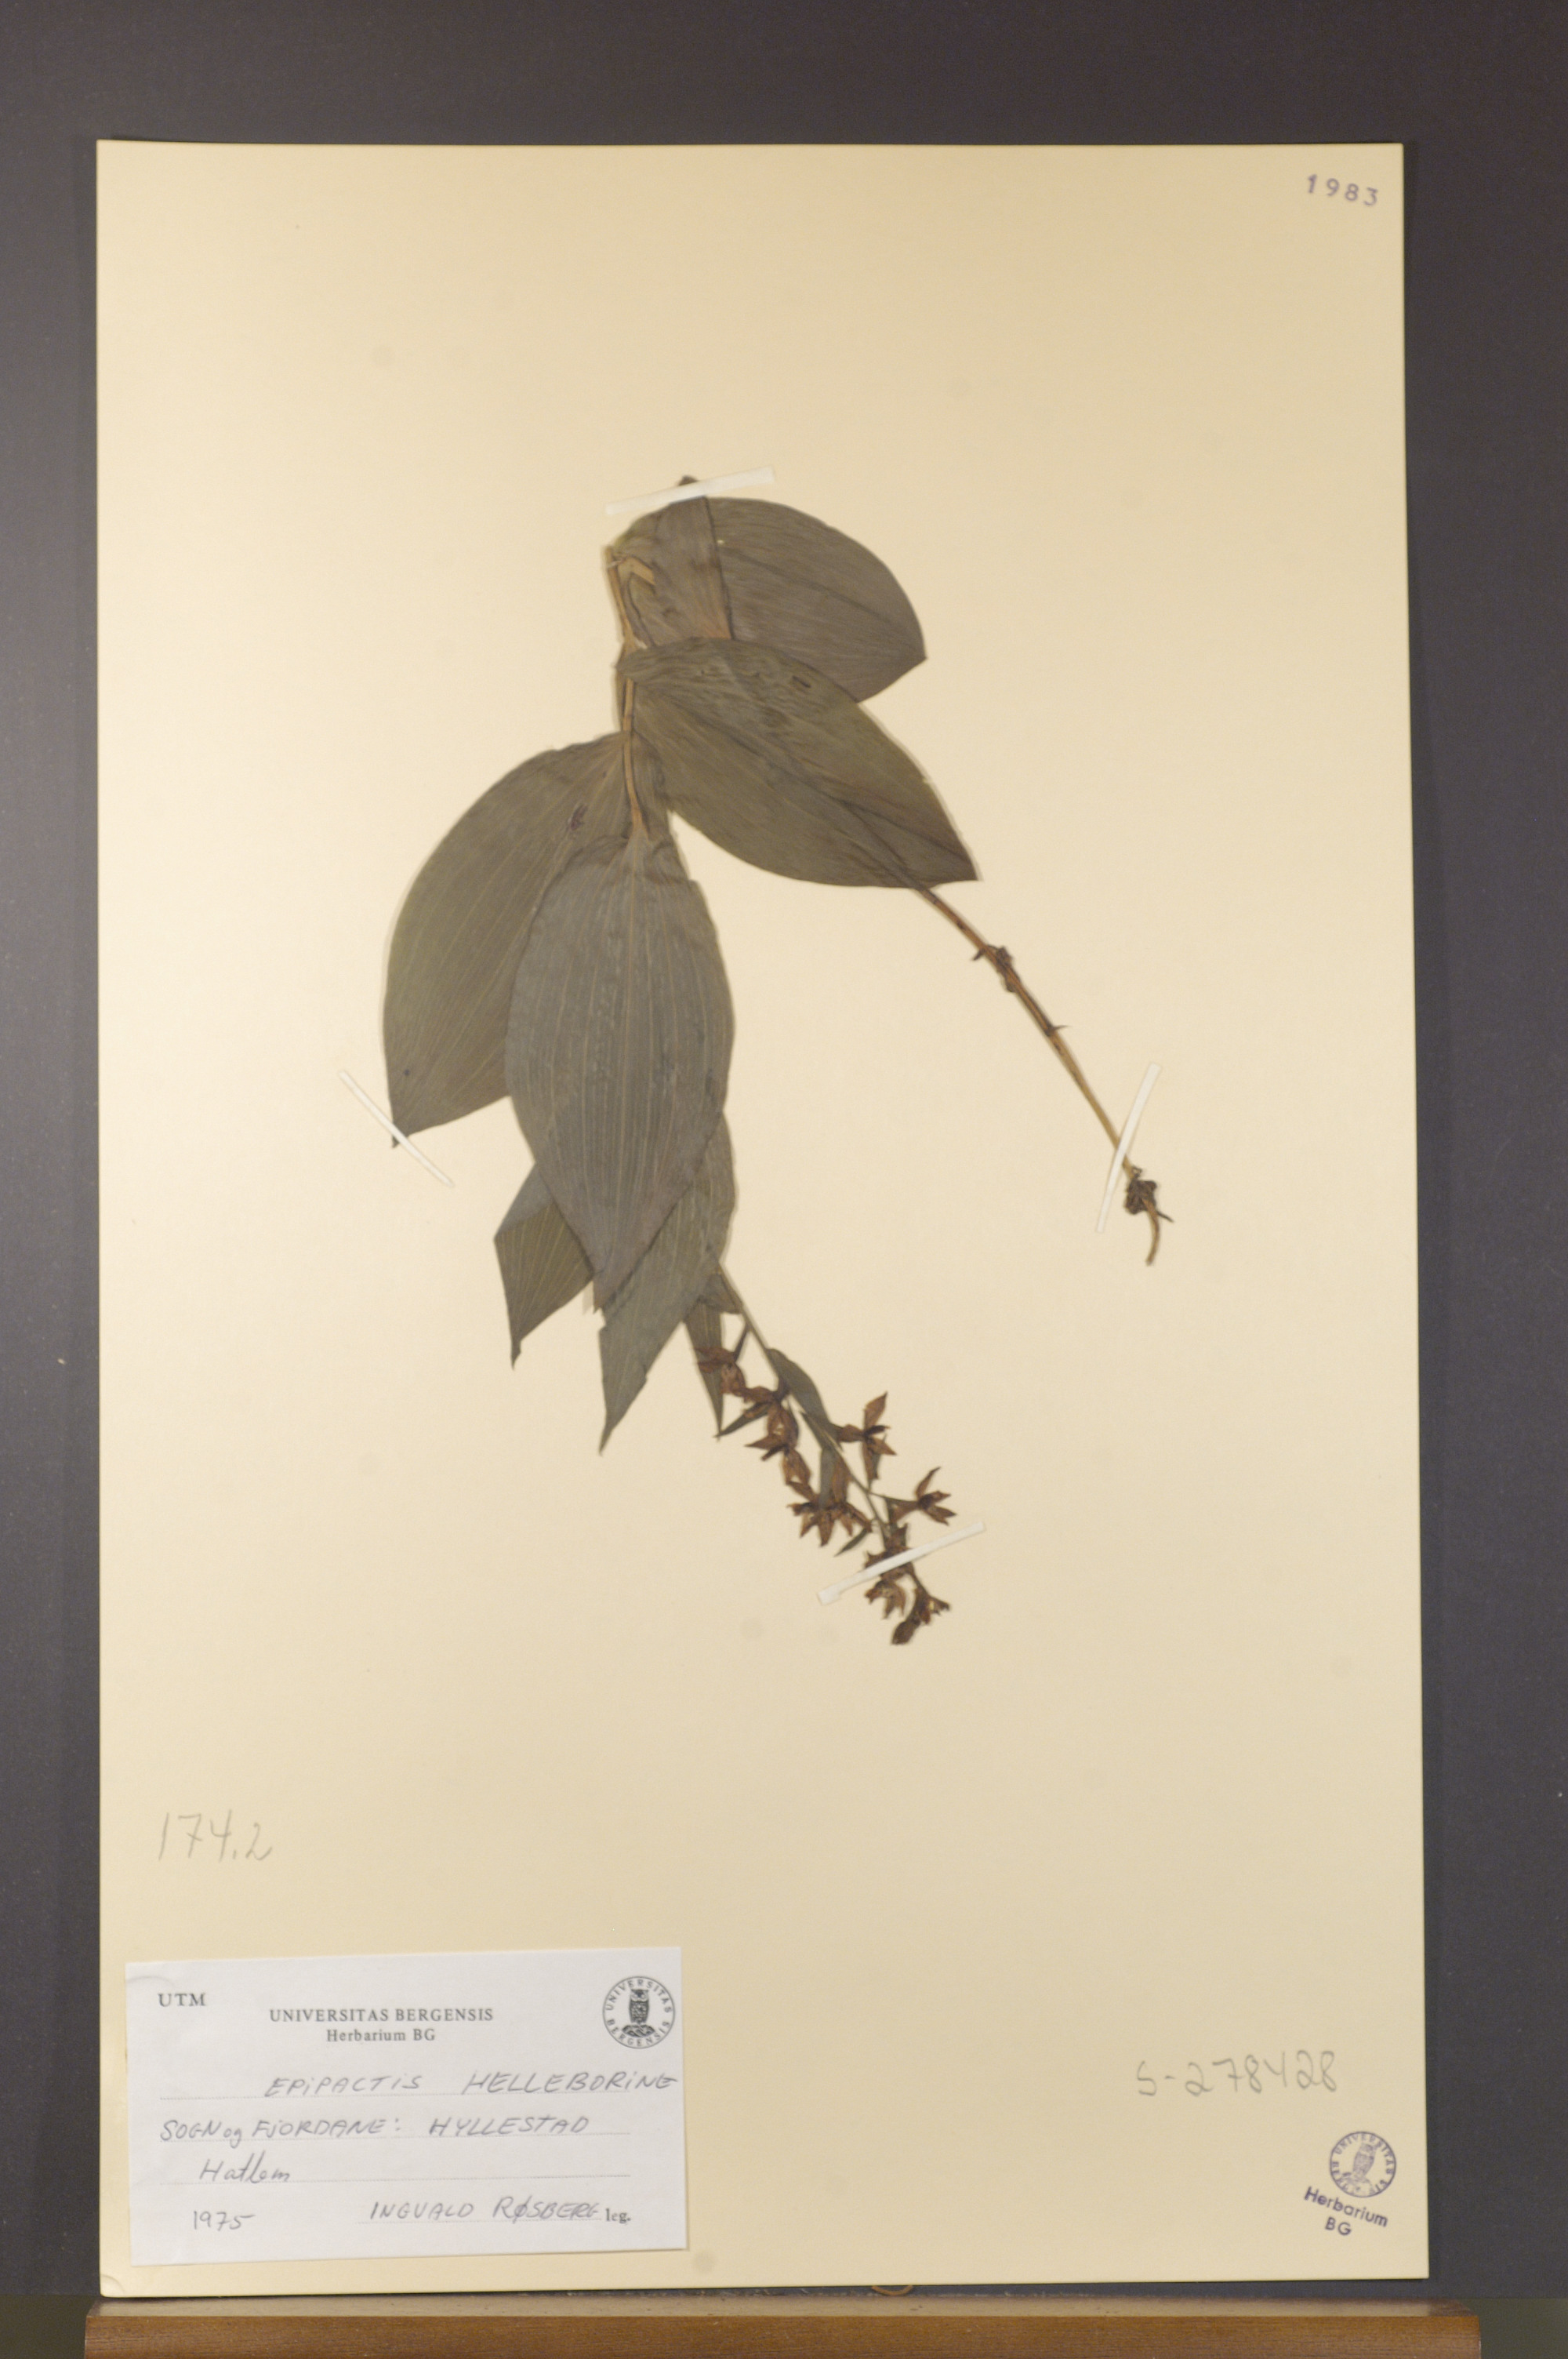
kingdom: Plantae
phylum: Tracheophyta
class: Liliopsida
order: Asparagales
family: Orchidaceae
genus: Epipactis
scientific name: Epipactis helleborine
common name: Broad-leaved helleborine
